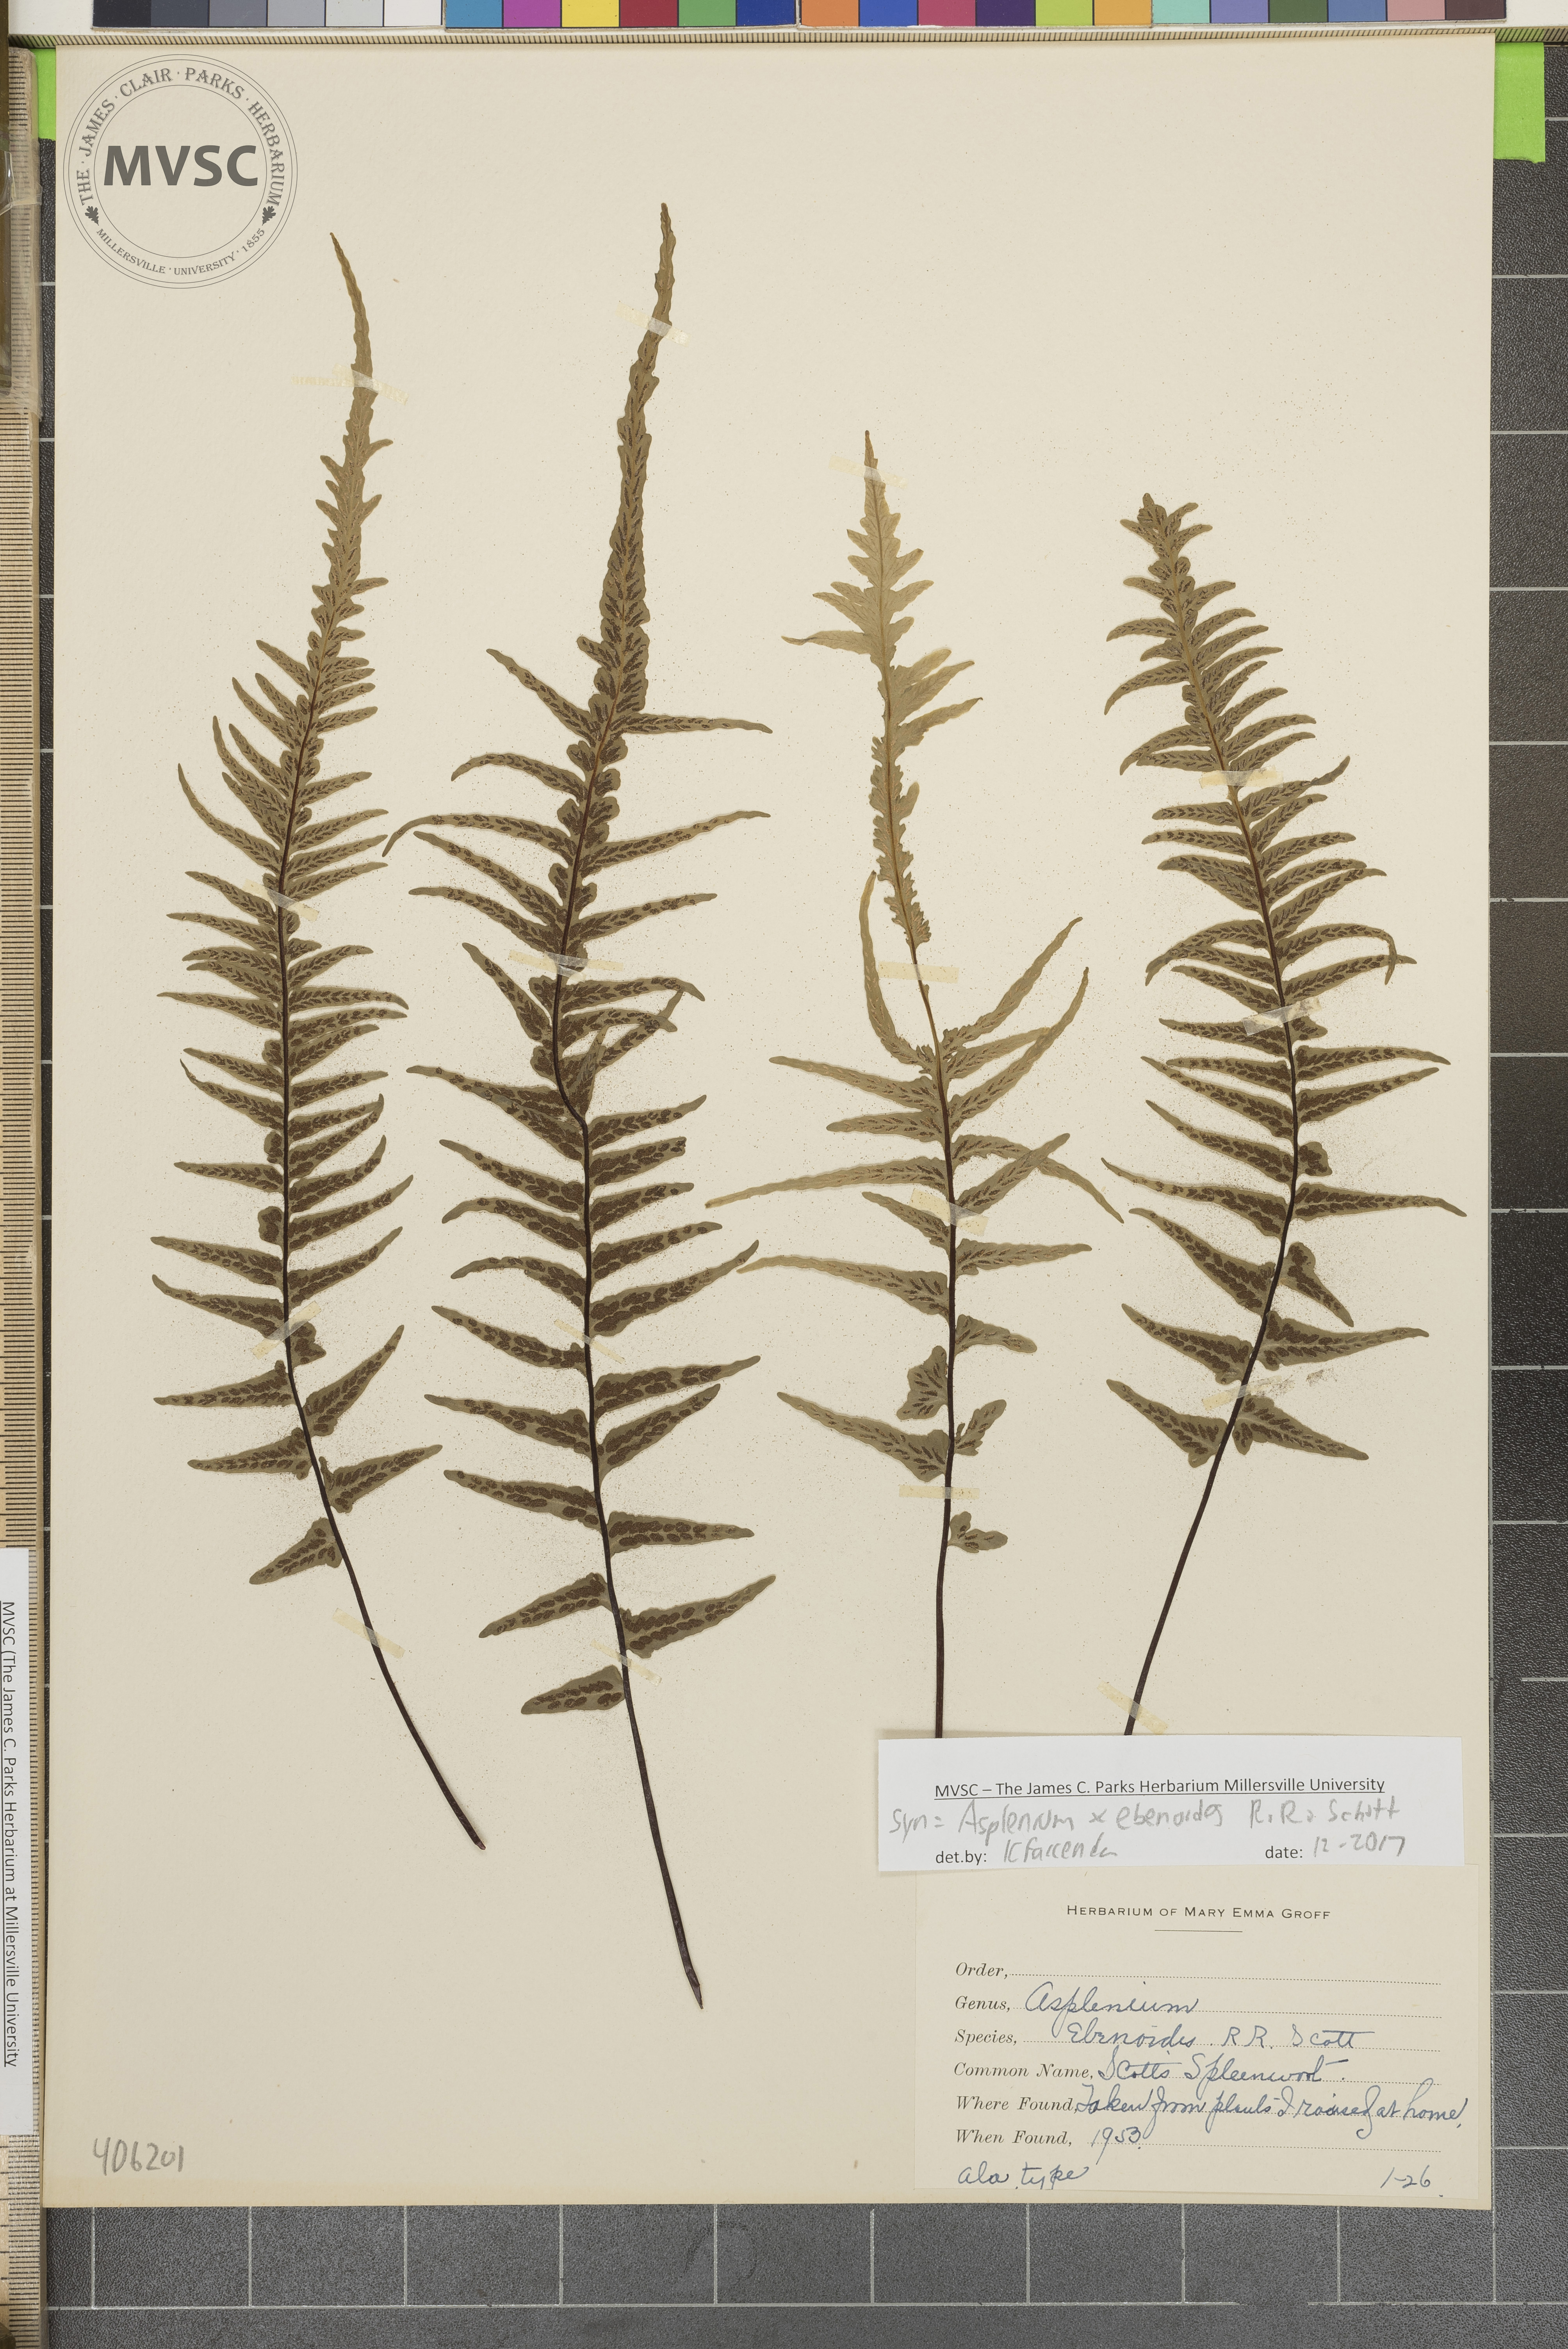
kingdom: Plantae
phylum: Tracheophyta
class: Polypodiopsida
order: Polypodiales
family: Aspleniaceae
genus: Asplenium
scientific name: Asplenium ebenoides
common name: Dragon-tail fern
